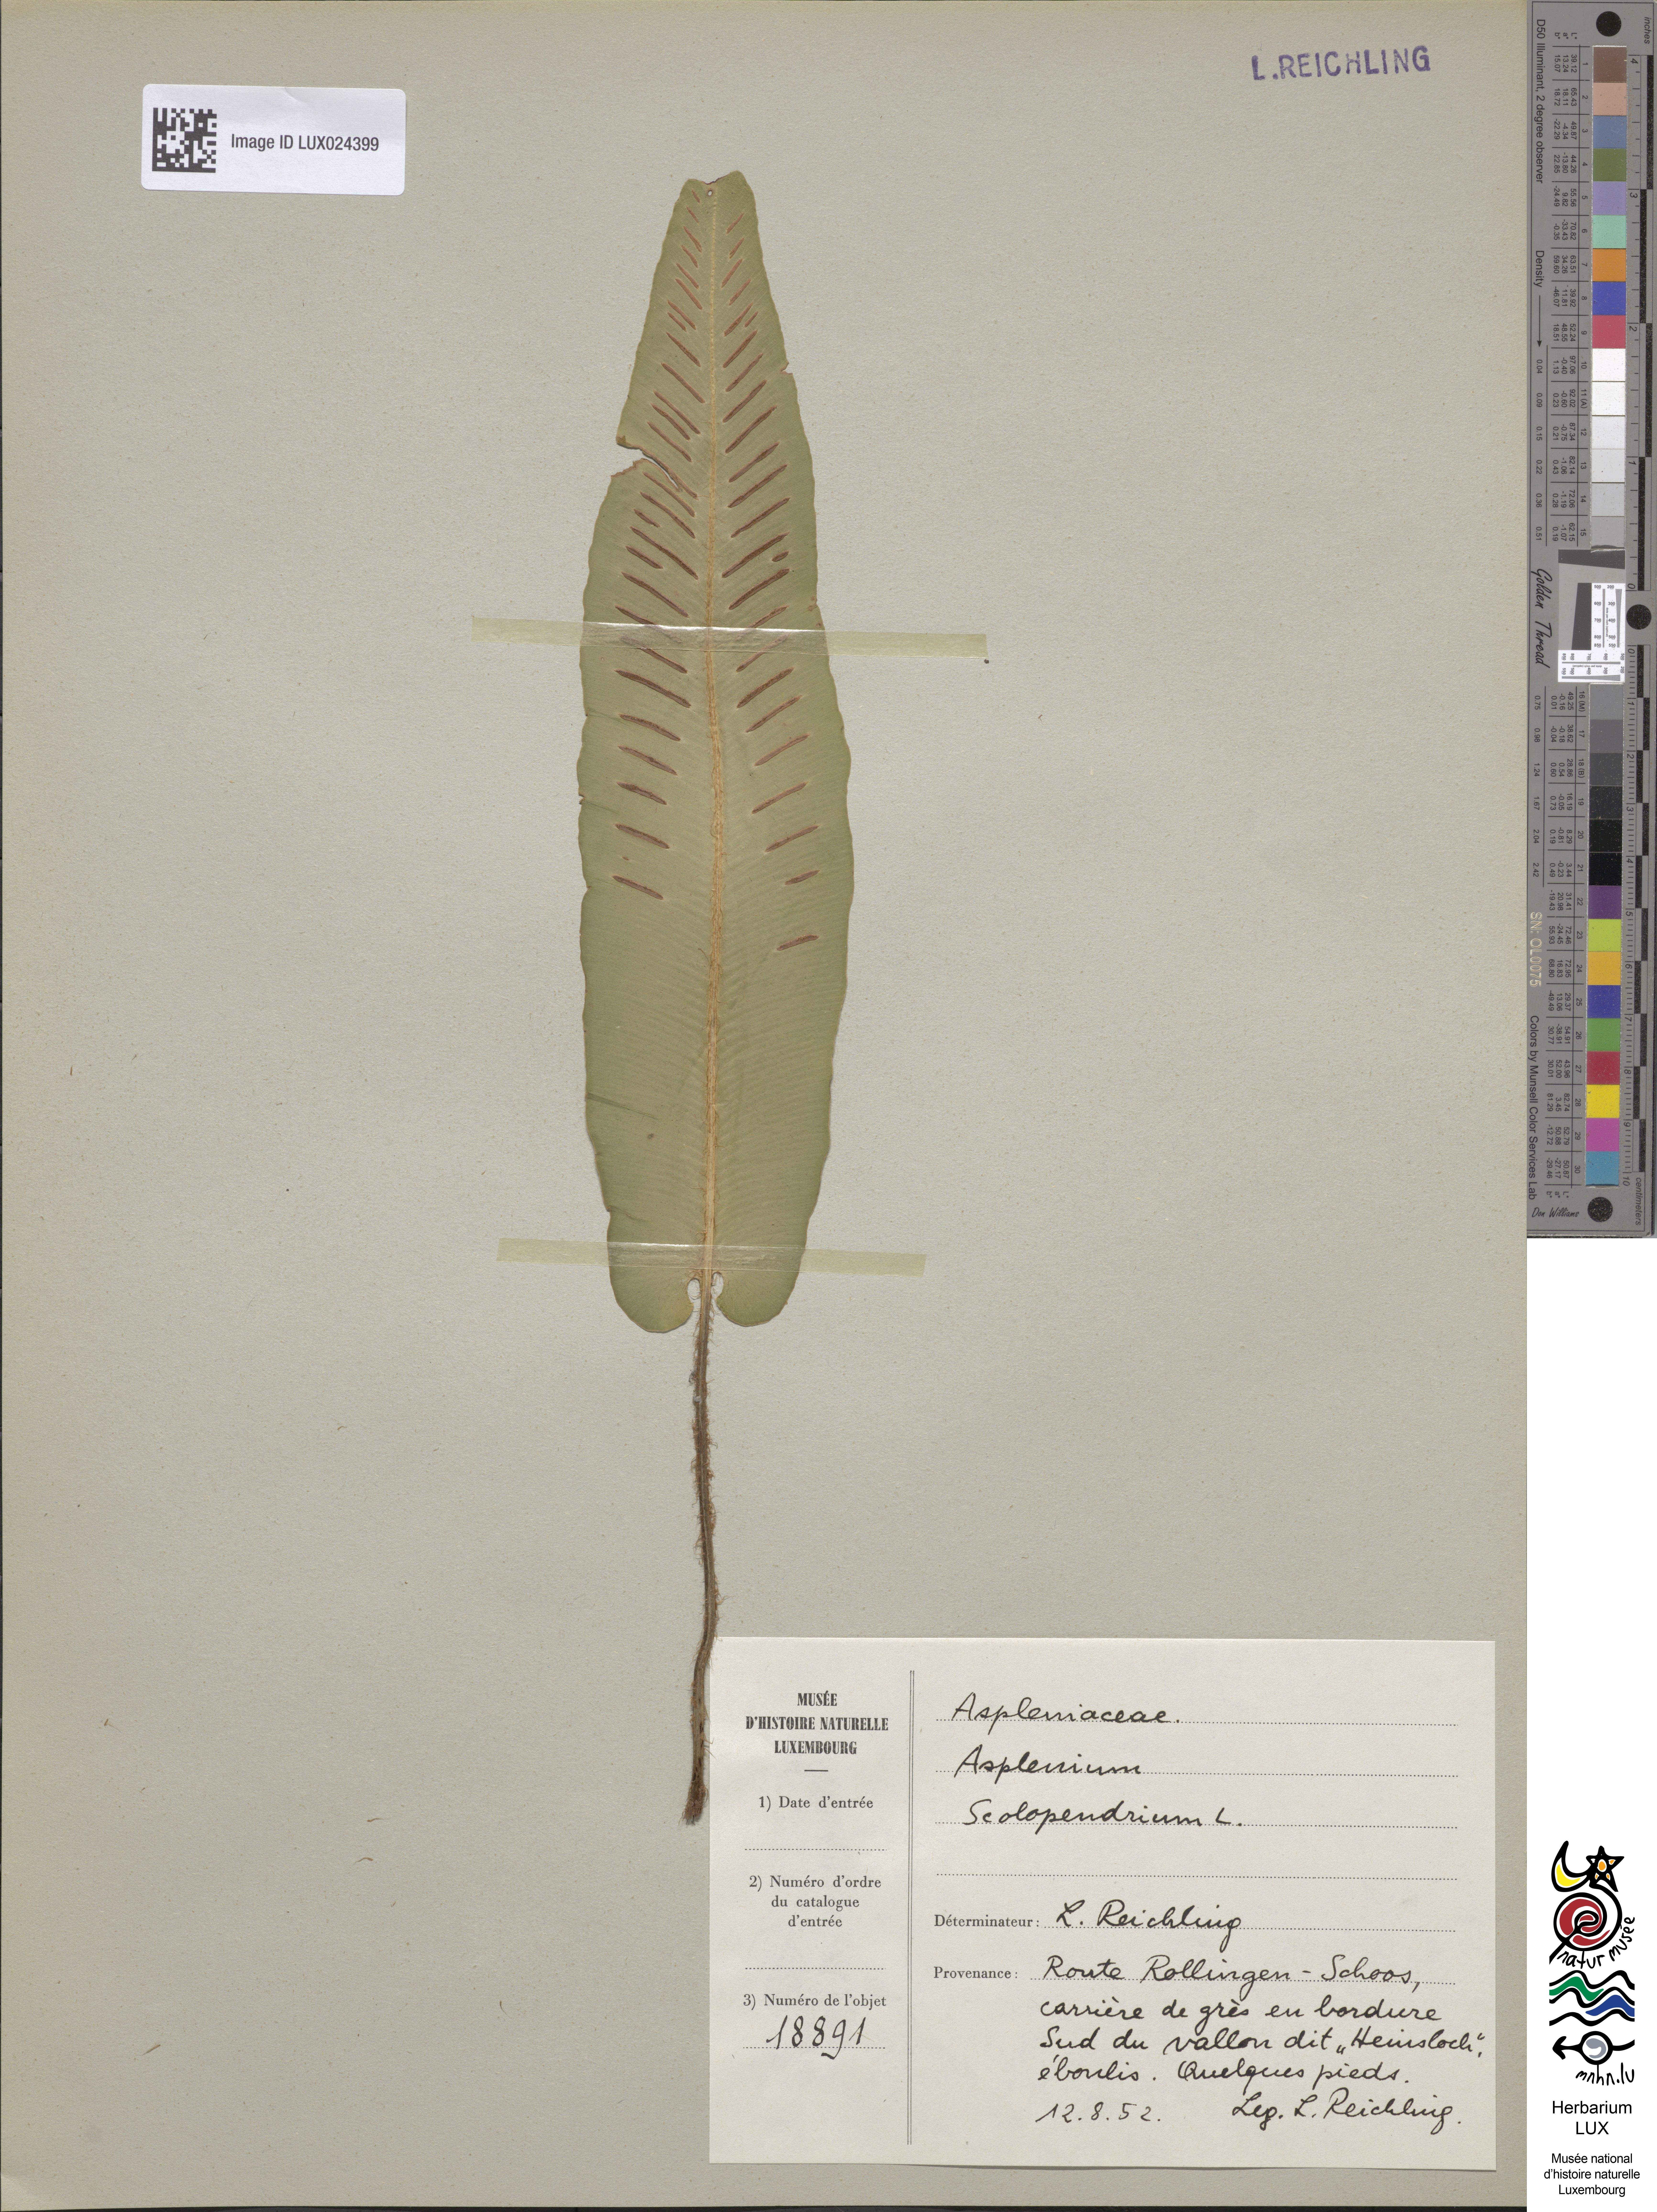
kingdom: Plantae
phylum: Tracheophyta
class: Polypodiopsida
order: Polypodiales
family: Aspleniaceae
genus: Asplenium
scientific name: Asplenium scolopendrium
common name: Hart's-tongue fern
